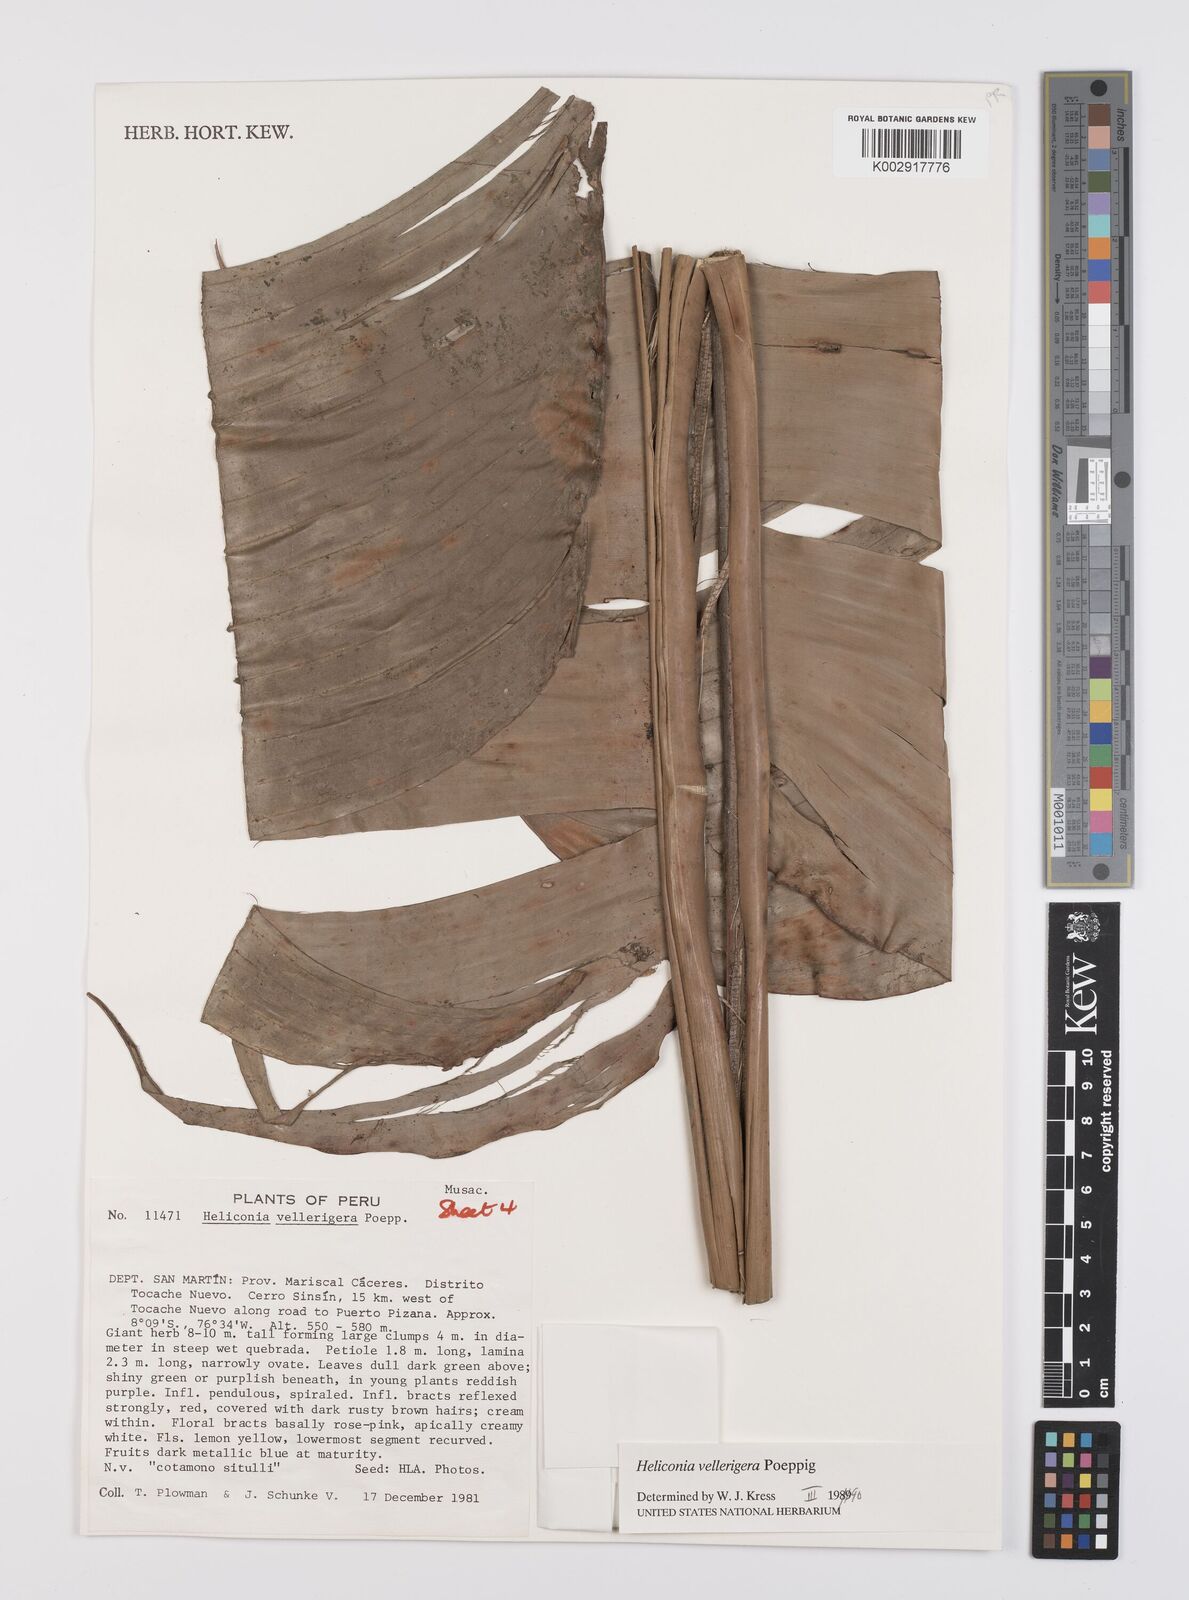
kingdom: Plantae
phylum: Tracheophyta
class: Liliopsida
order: Zingiberales
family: Heliconiaceae
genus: Heliconia
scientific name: Heliconia vellerigera
